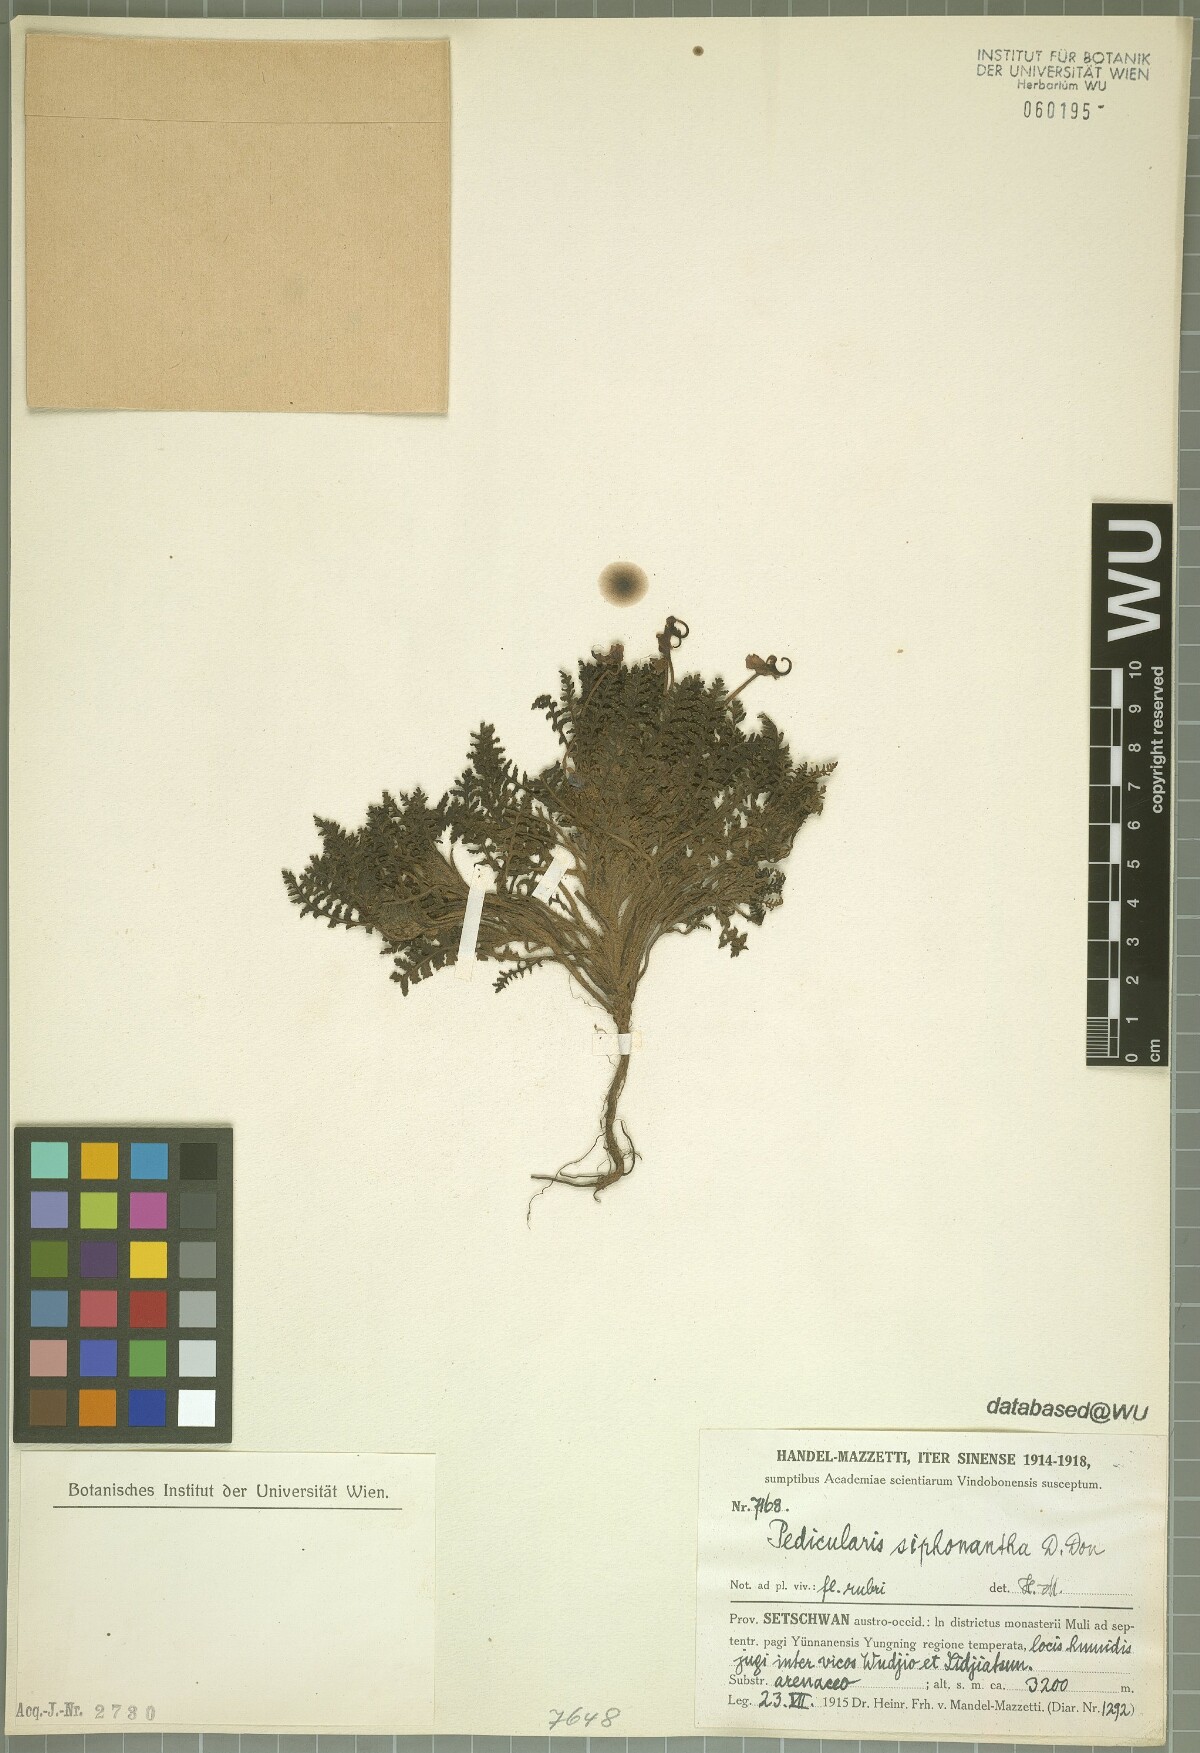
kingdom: Plantae
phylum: Tracheophyta
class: Magnoliopsida
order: Lamiales
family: Orobanchaceae
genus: Pedicularis
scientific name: Pedicularis siphonantha
